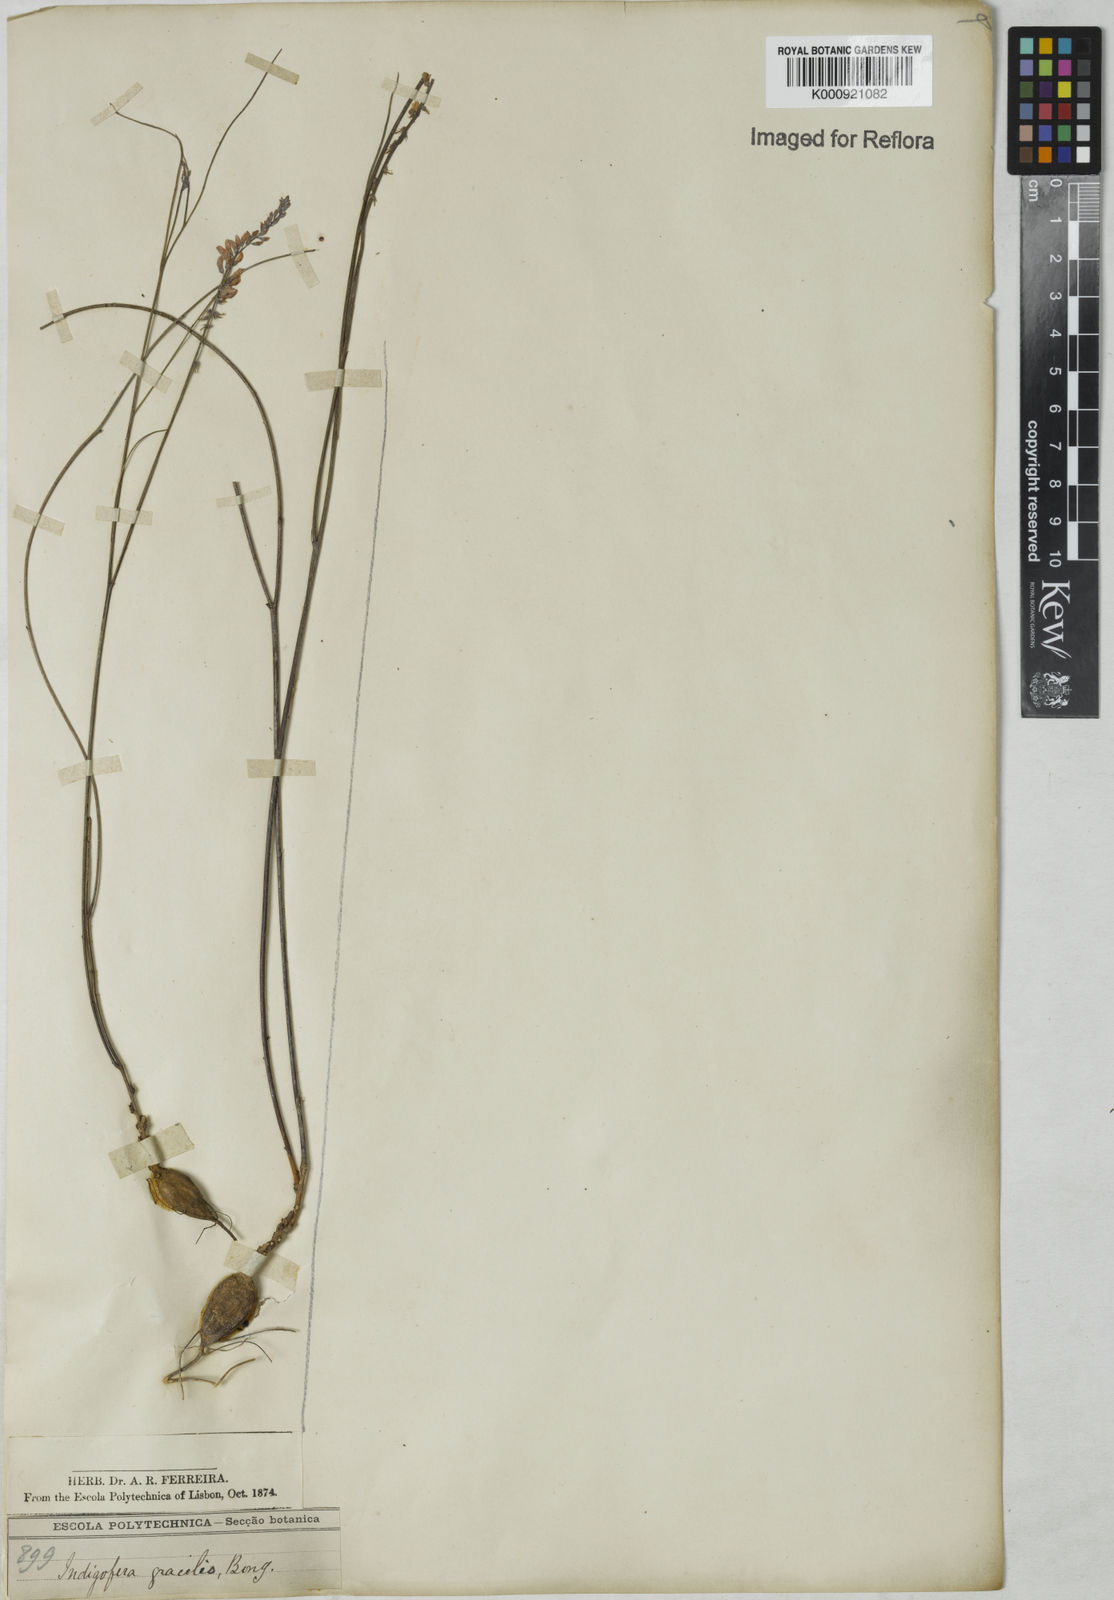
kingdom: Plantae
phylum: Tracheophyta
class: Magnoliopsida
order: Fabales
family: Fabaceae
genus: Indigofera
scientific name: Indigofera bongardiana
